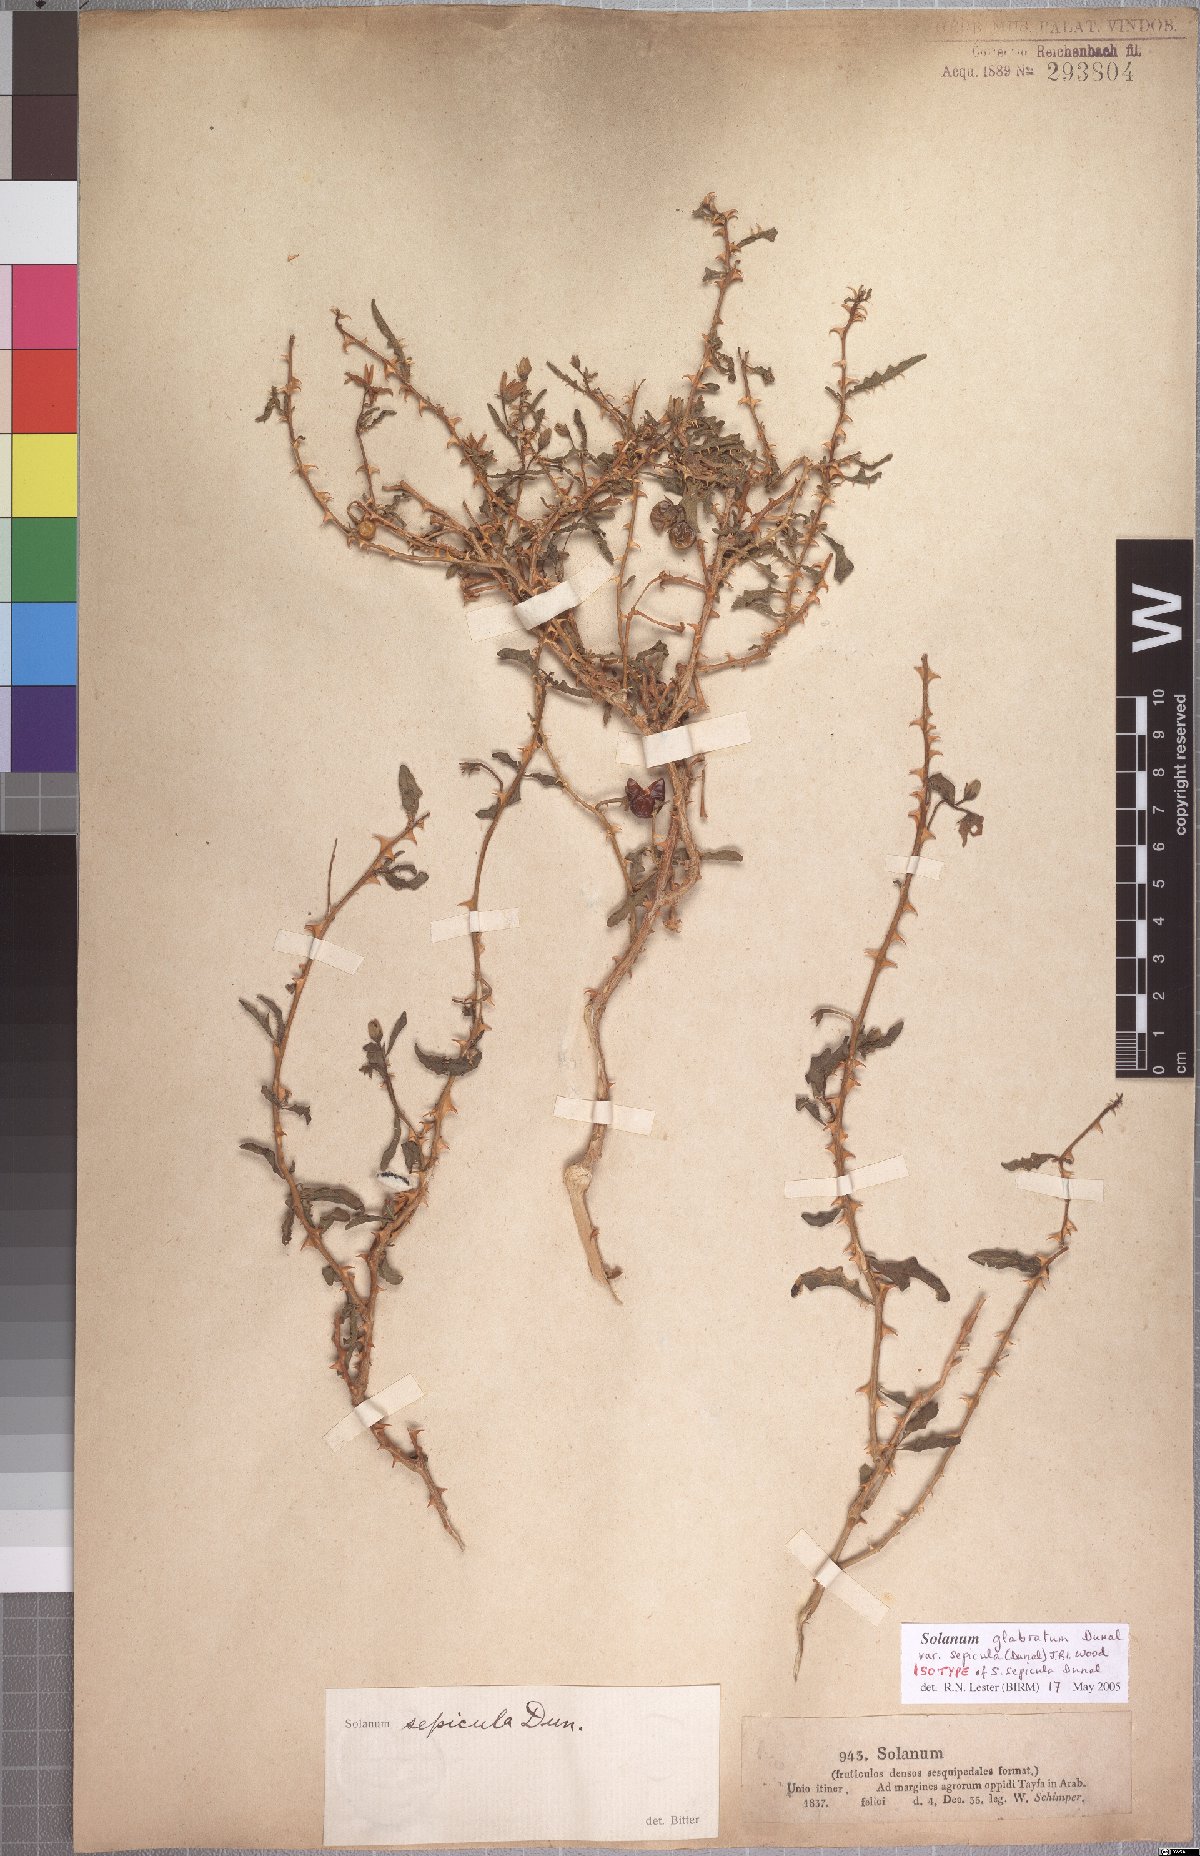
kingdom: Plantae
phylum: Tracheophyta
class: Magnoliopsida
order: Solanales
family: Solanaceae
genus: Solanum
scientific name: Solanum glabratum
